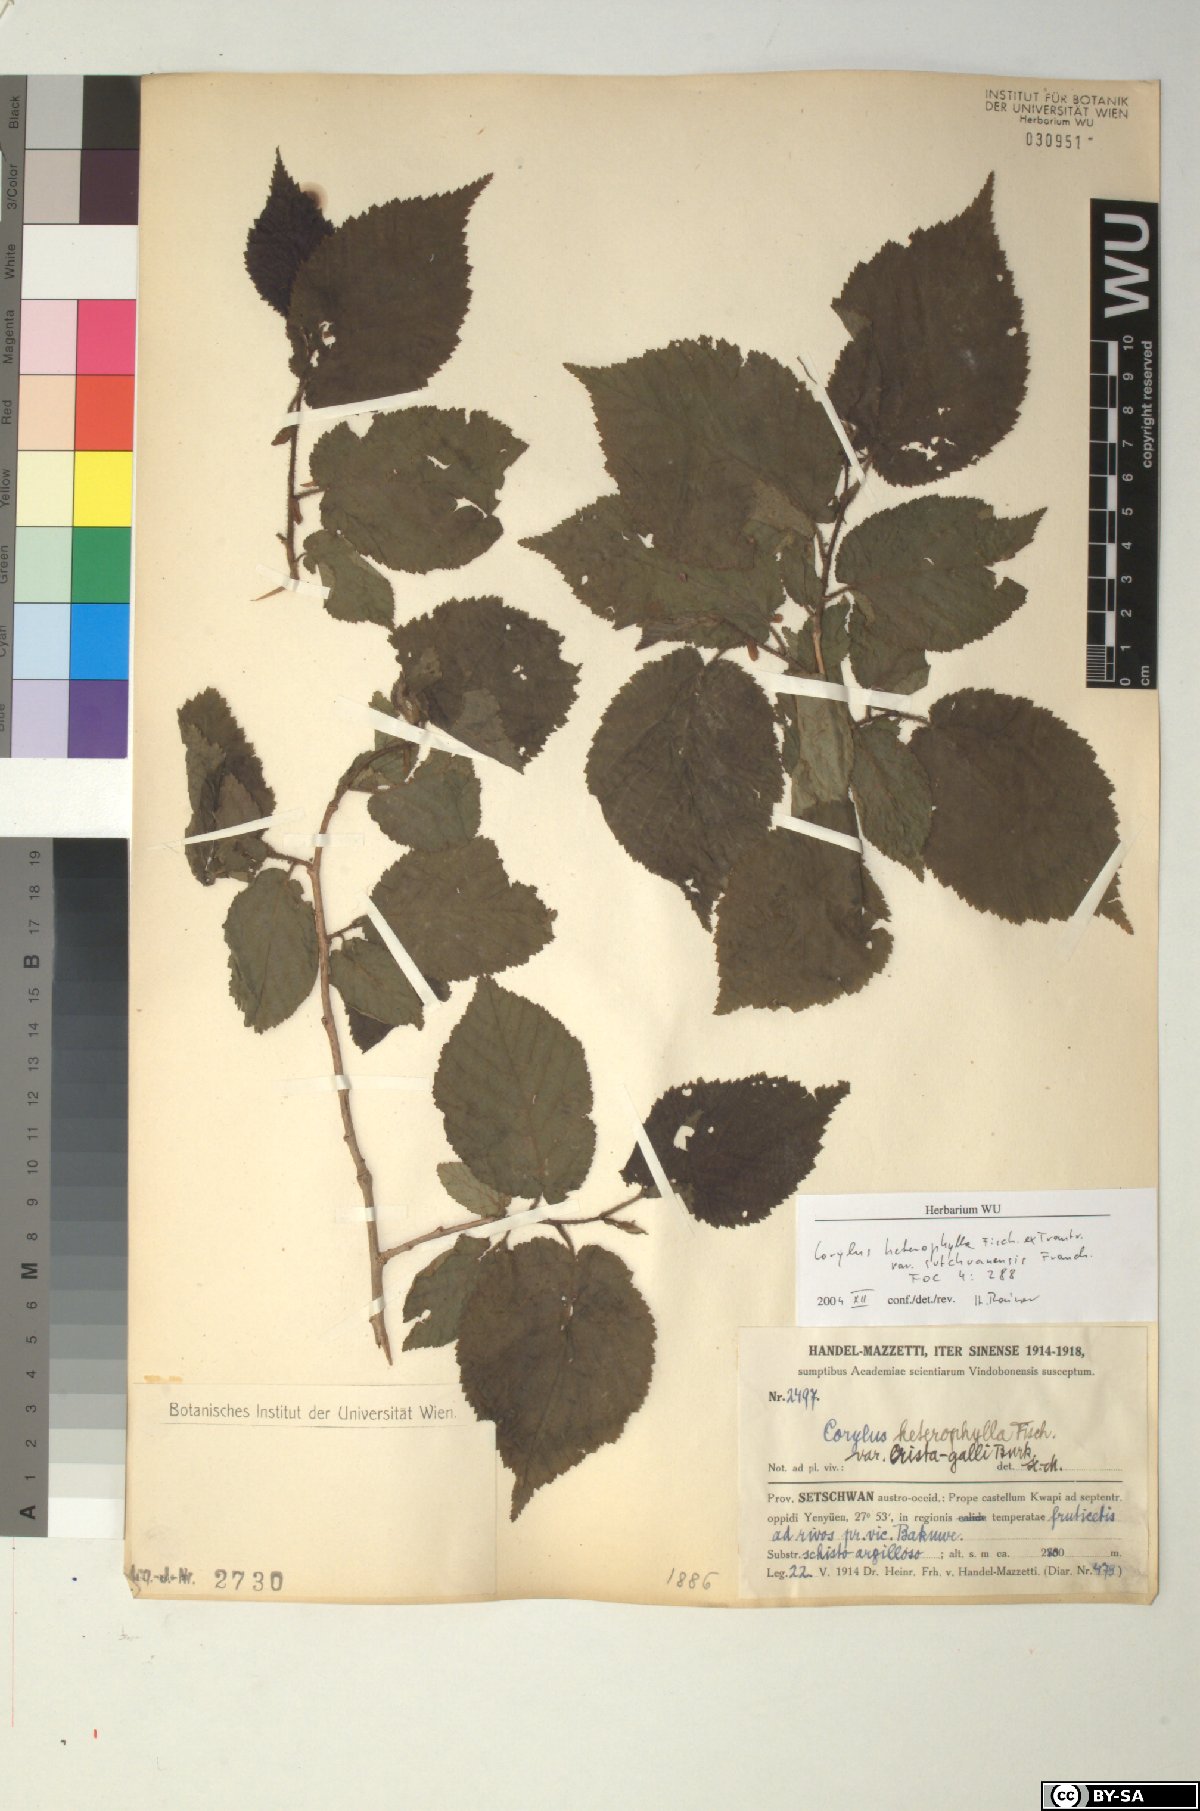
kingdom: Plantae
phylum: Tracheophyta
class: Magnoliopsida
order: Fagales
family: Betulaceae
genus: Corylus
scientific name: Corylus heterophylla
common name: Siberian hazelnut
